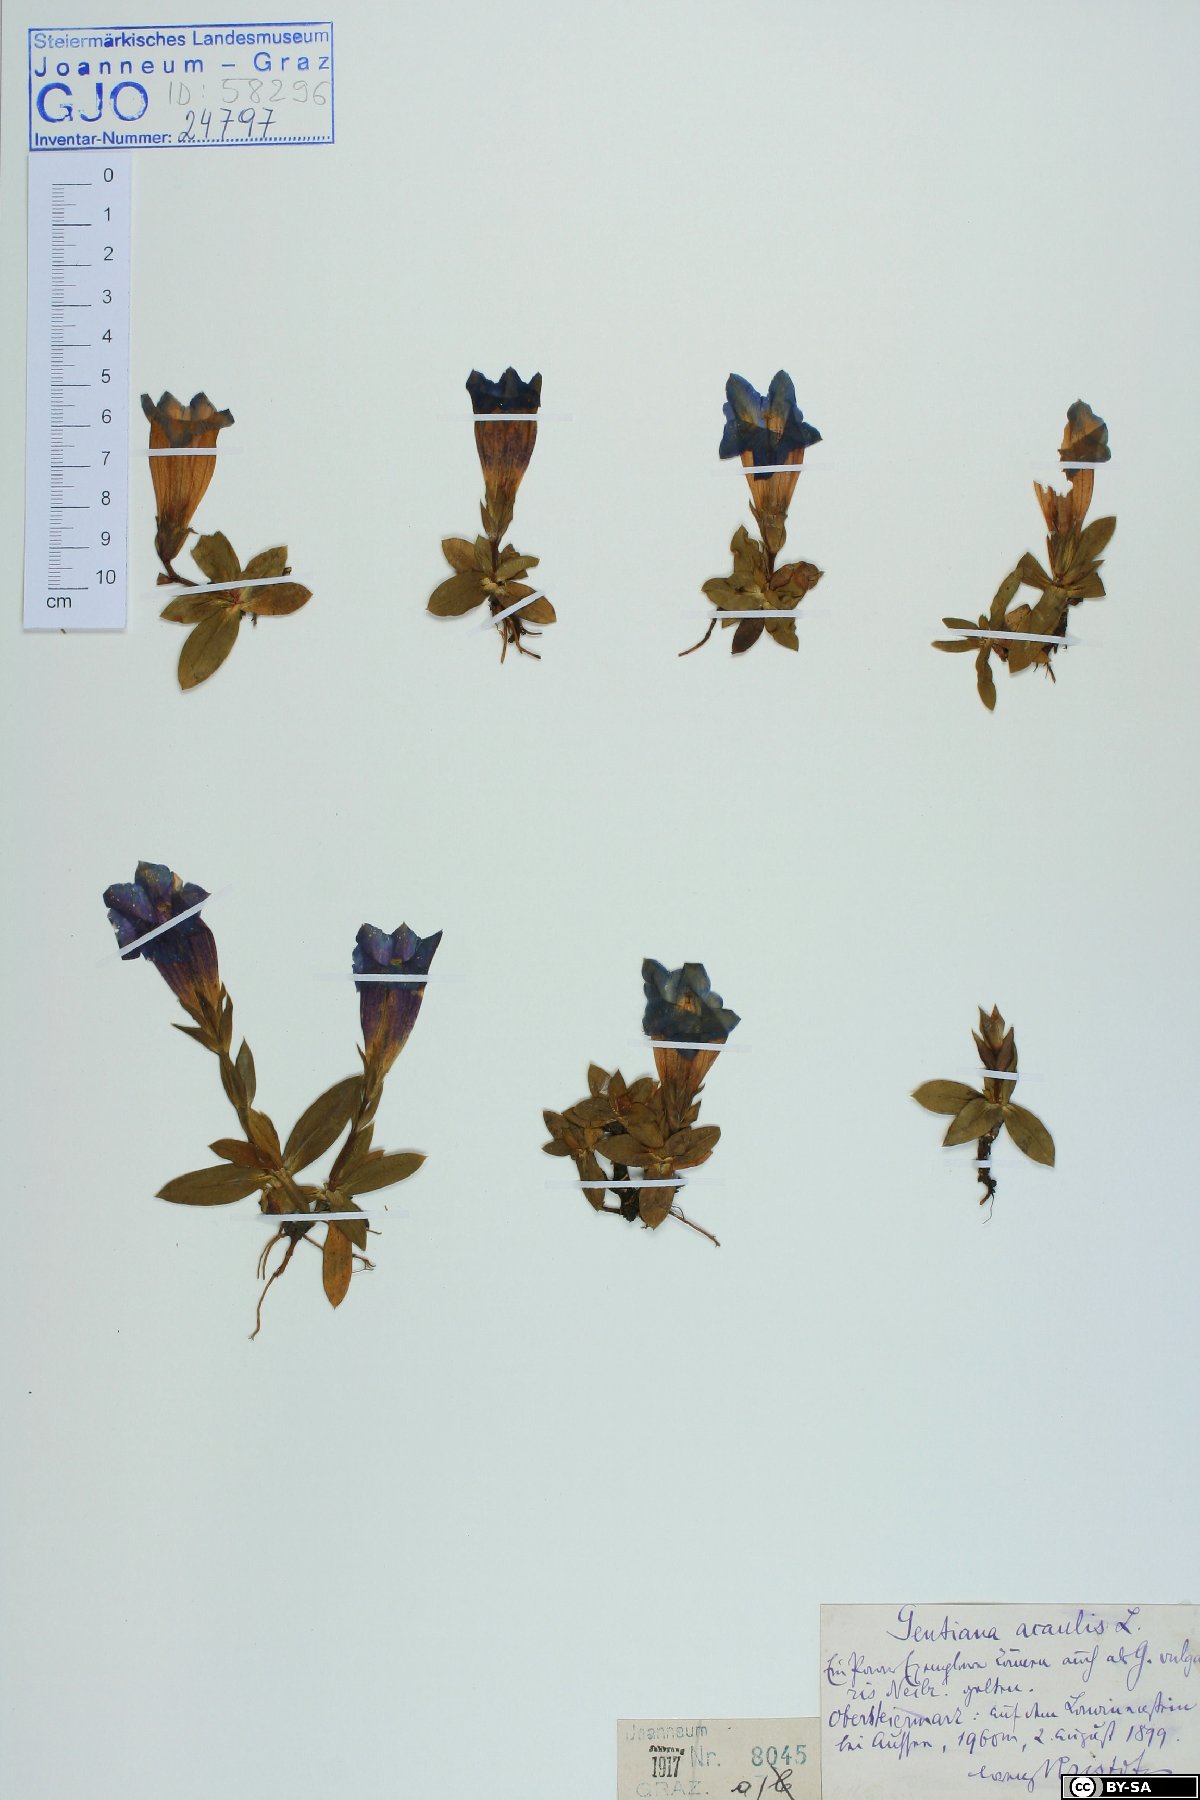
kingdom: Plantae
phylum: Tracheophyta
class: Magnoliopsida
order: Gentianales
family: Gentianaceae
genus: Gentiana
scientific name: Gentiana clusii
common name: Trumpet gentian
